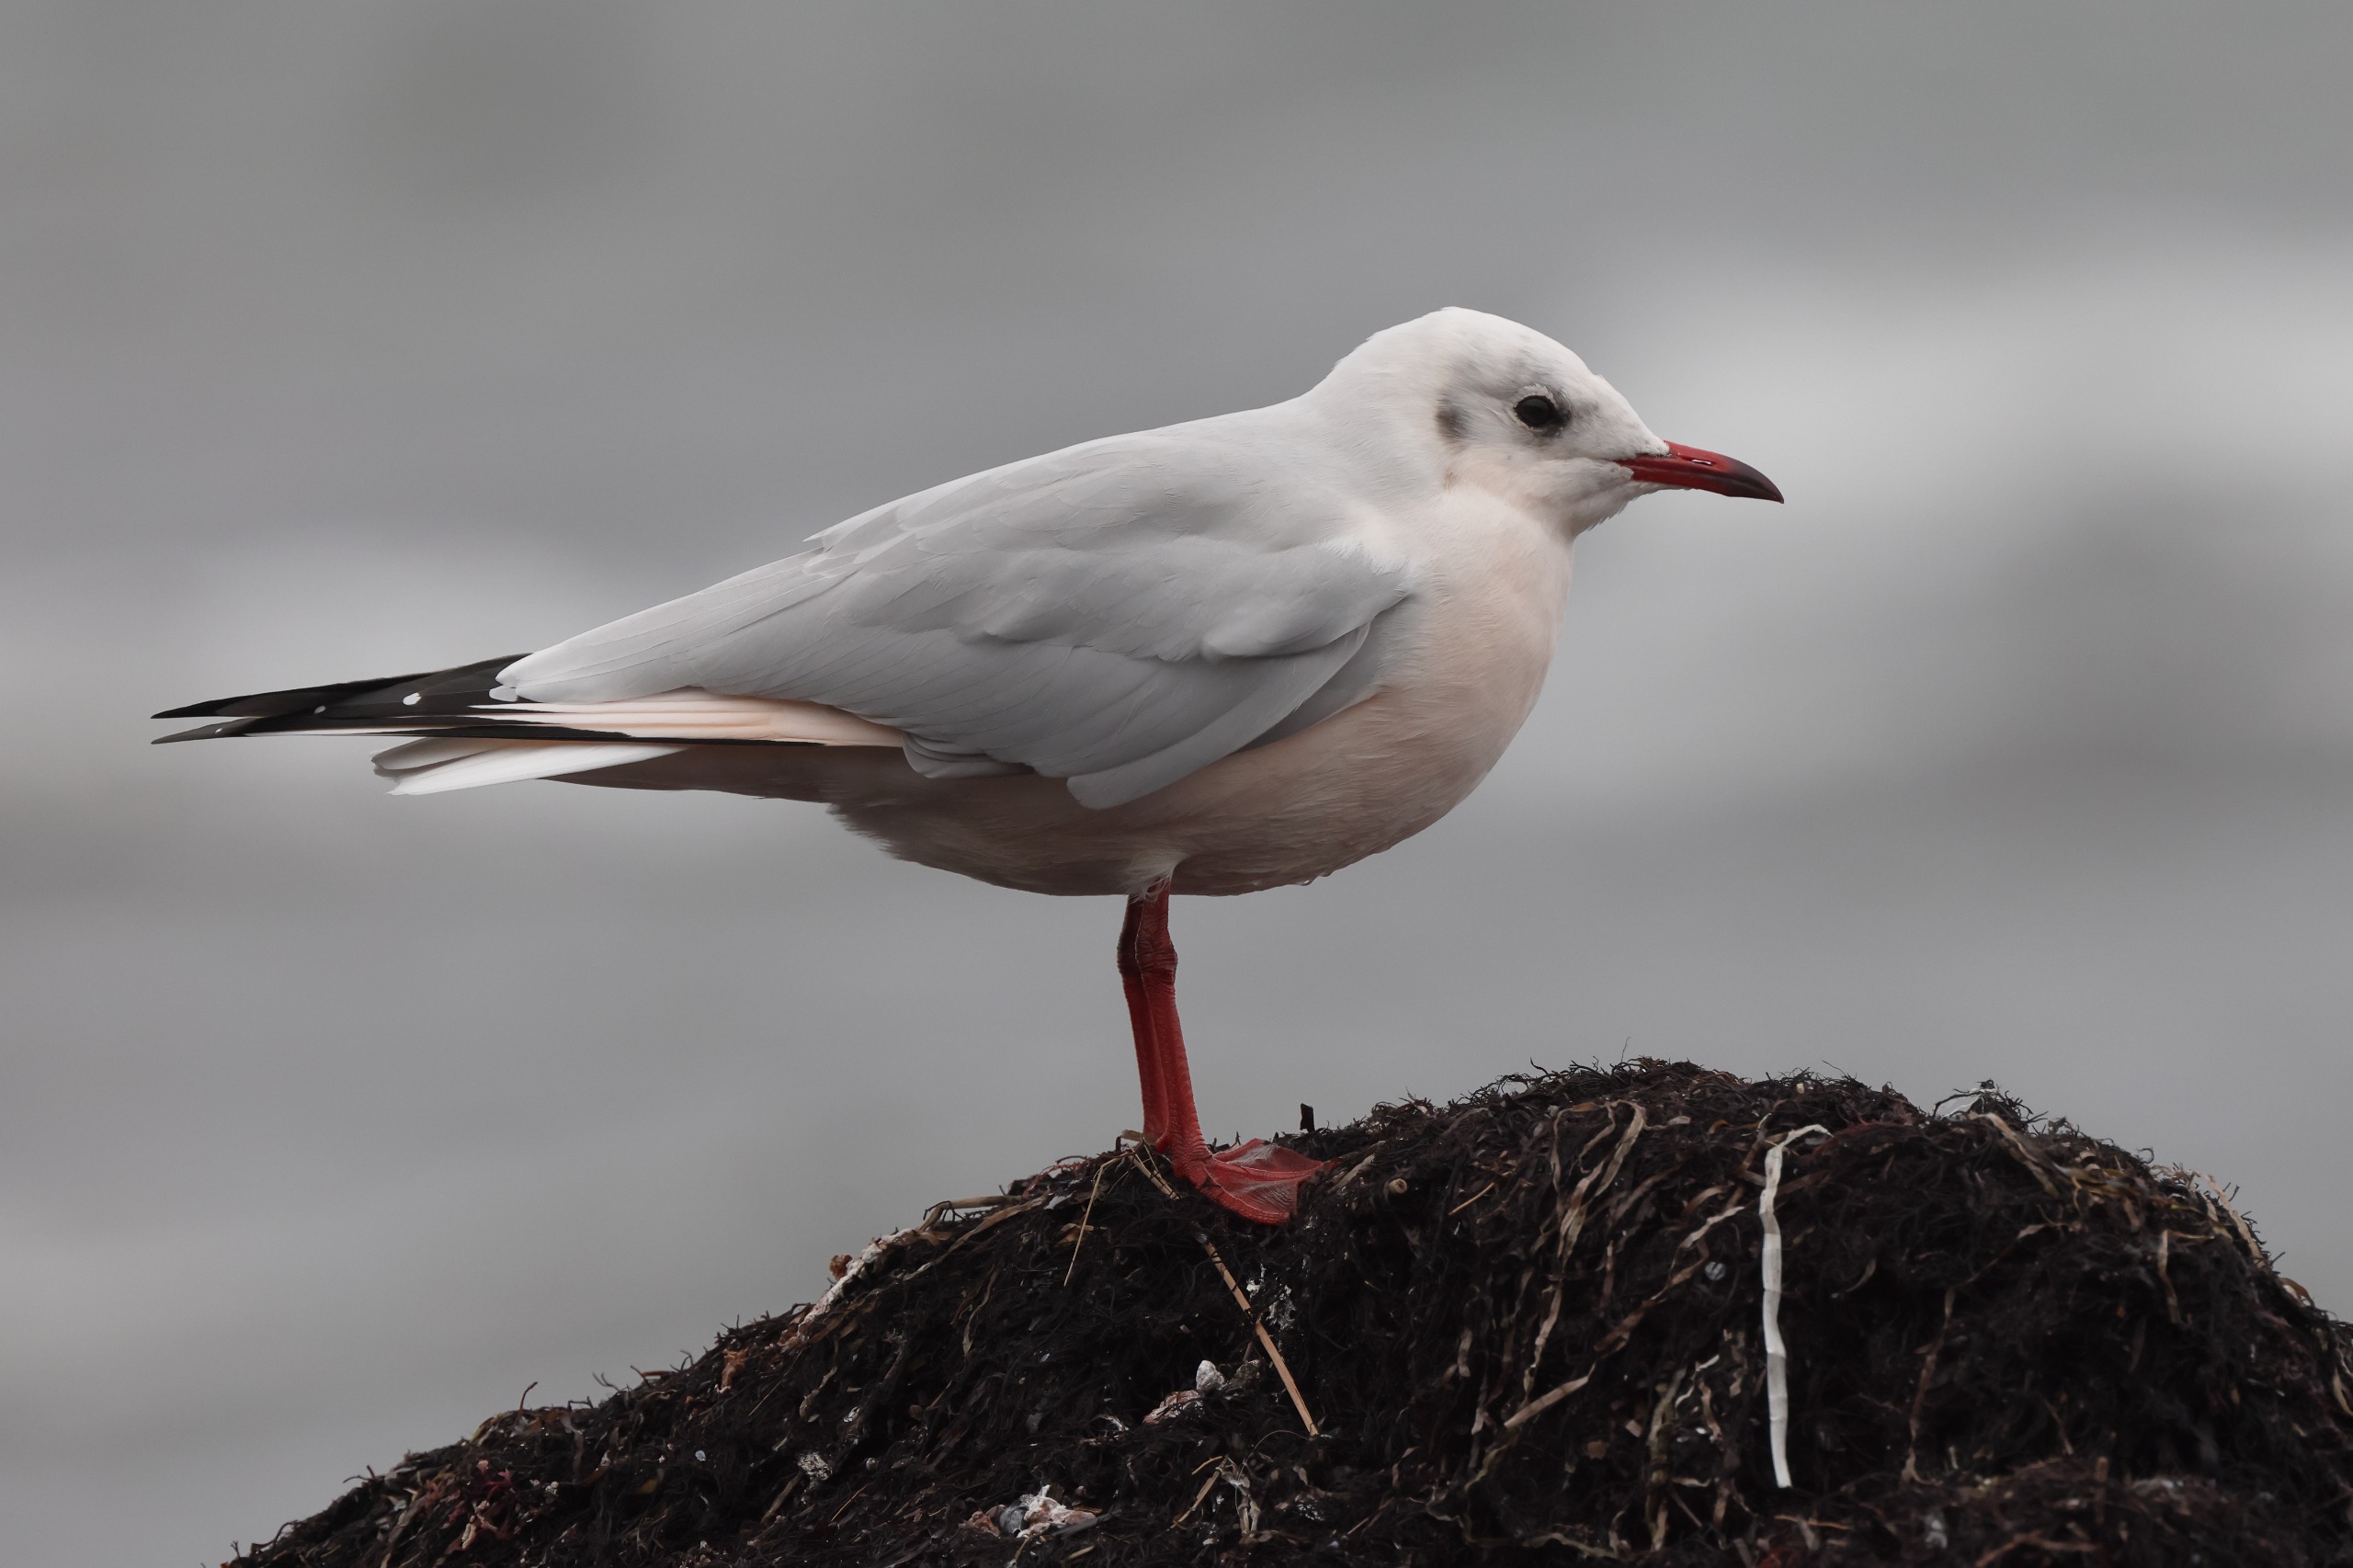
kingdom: Animalia
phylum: Chordata
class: Aves
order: Charadriiformes
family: Laridae
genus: Chroicocephalus
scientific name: Chroicocephalus ridibundus
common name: Hættemåge
